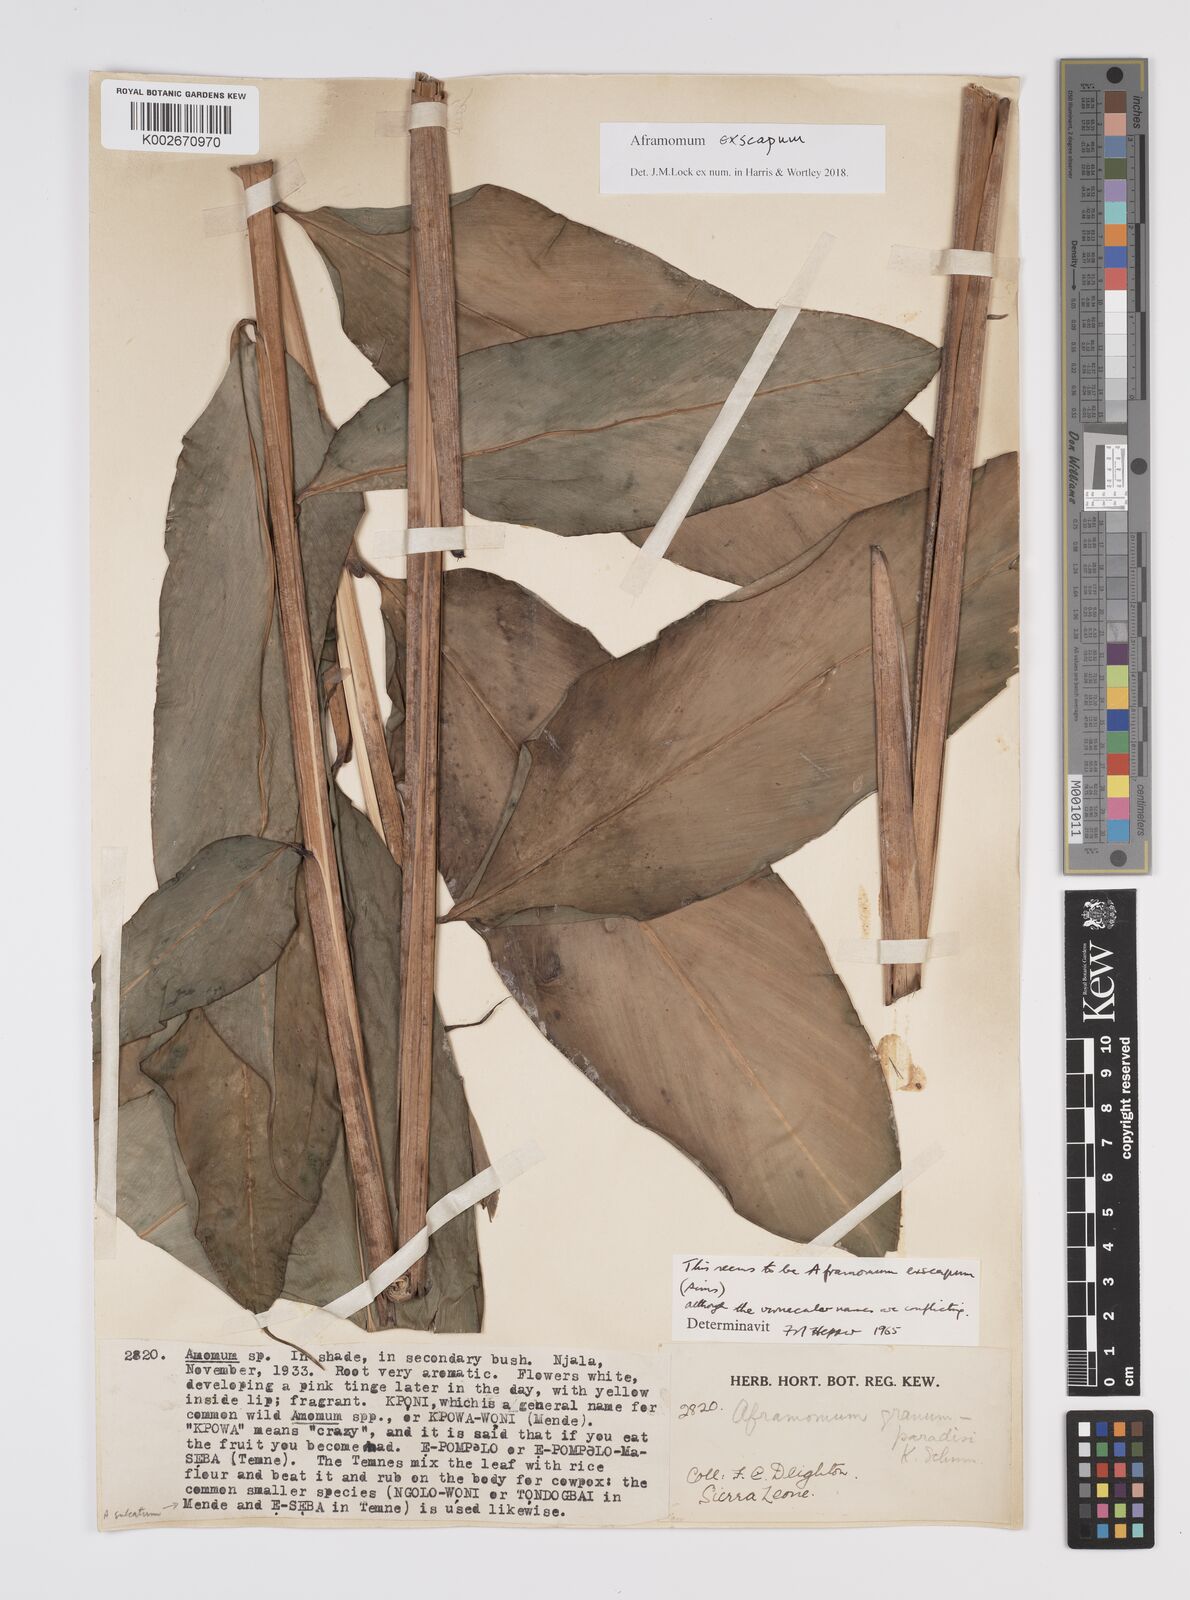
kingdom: Plantae
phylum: Tracheophyta
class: Liliopsida
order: Zingiberales
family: Zingiberaceae
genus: Aframomum
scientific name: Aframomum exscapum
